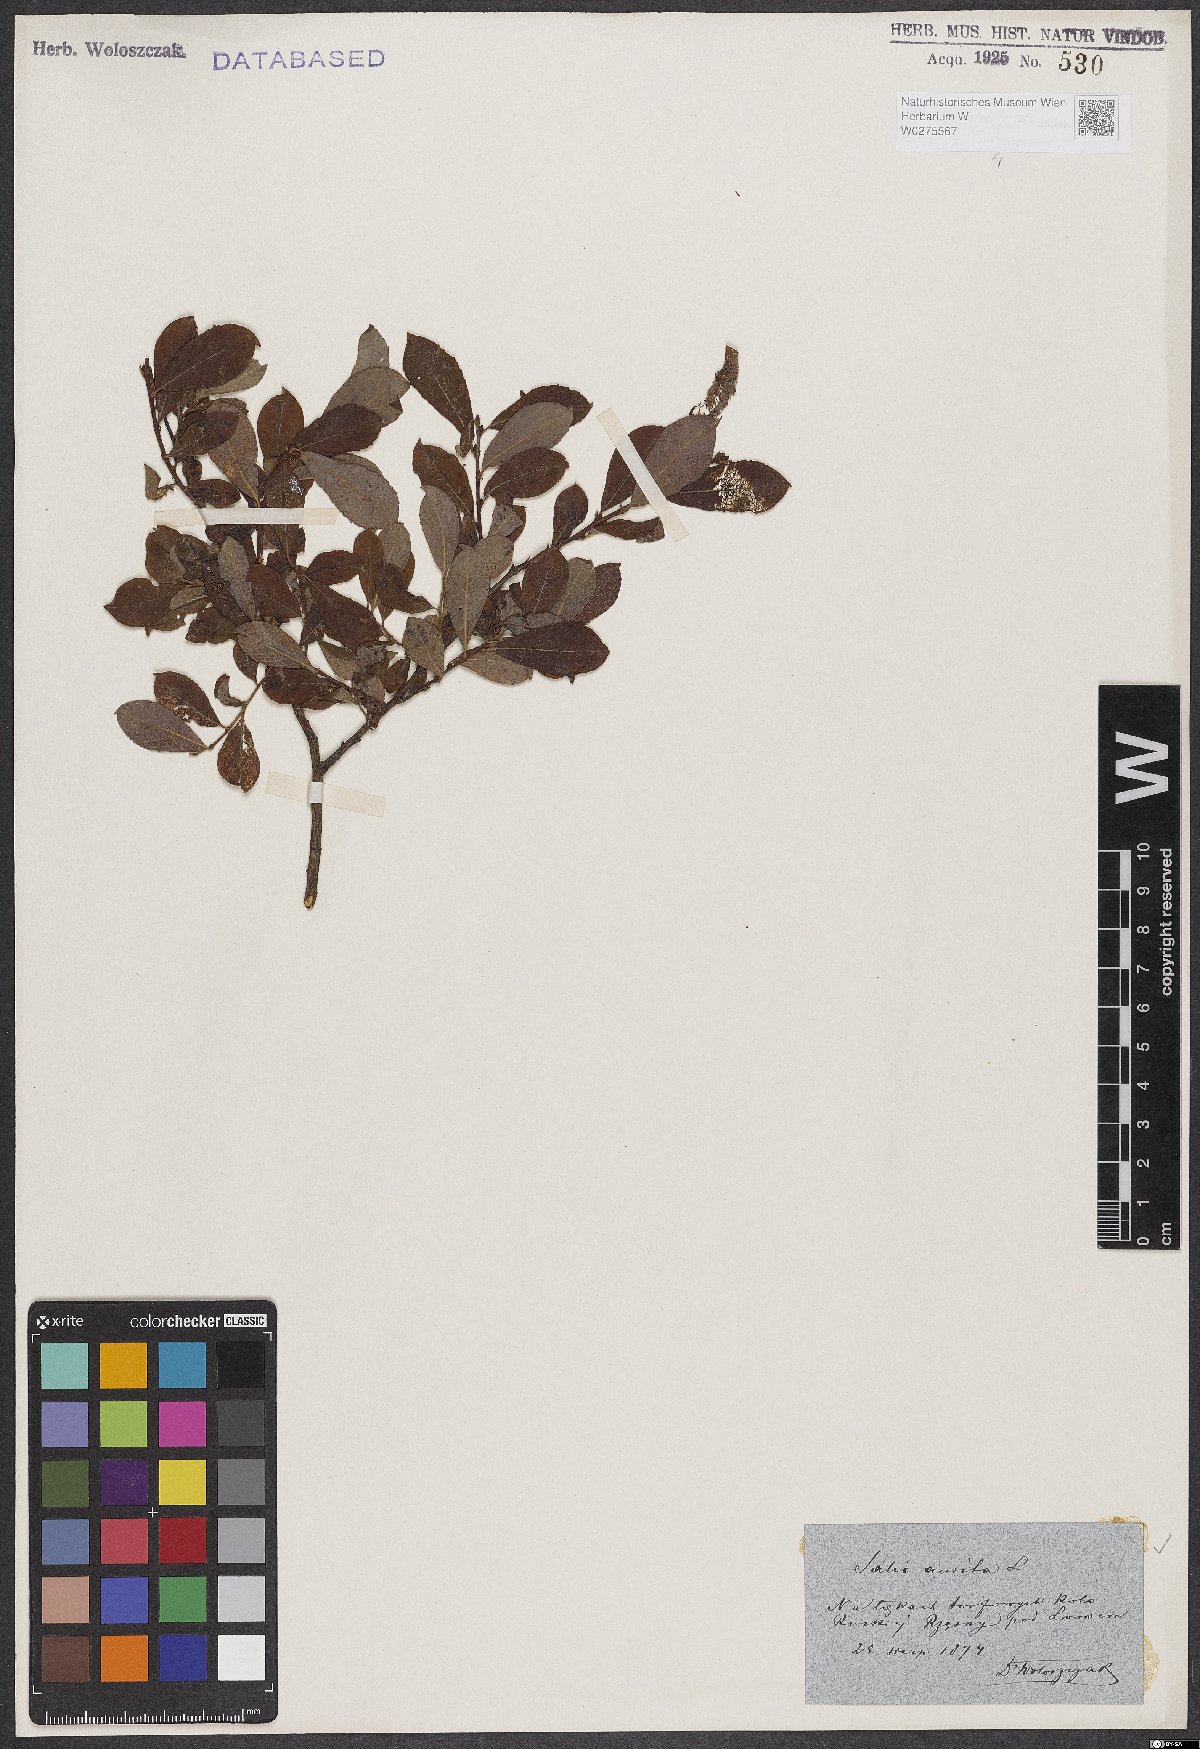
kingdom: Plantae
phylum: Tracheophyta
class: Magnoliopsida
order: Malpighiales
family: Salicaceae
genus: Salix
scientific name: Salix aurita
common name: Eared willow
